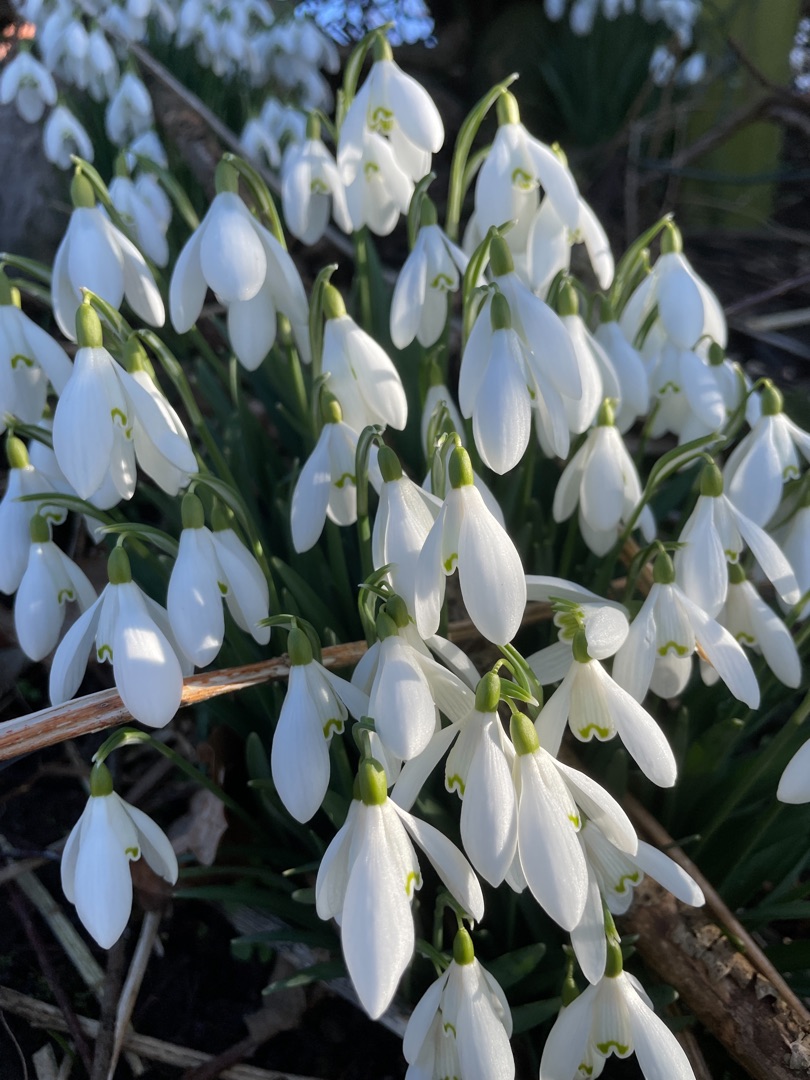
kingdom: Plantae
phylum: Tracheophyta
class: Liliopsida
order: Asparagales
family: Amaryllidaceae
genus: Galanthus
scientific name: Galanthus nivalis
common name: Vintergæk
